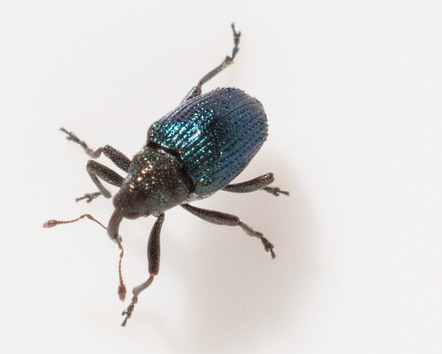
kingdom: Animalia
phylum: Arthropoda
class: Insecta
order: Coleoptera
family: Curculionidae
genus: Ceutorhynchus
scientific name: Ceutorhynchus erysimi
